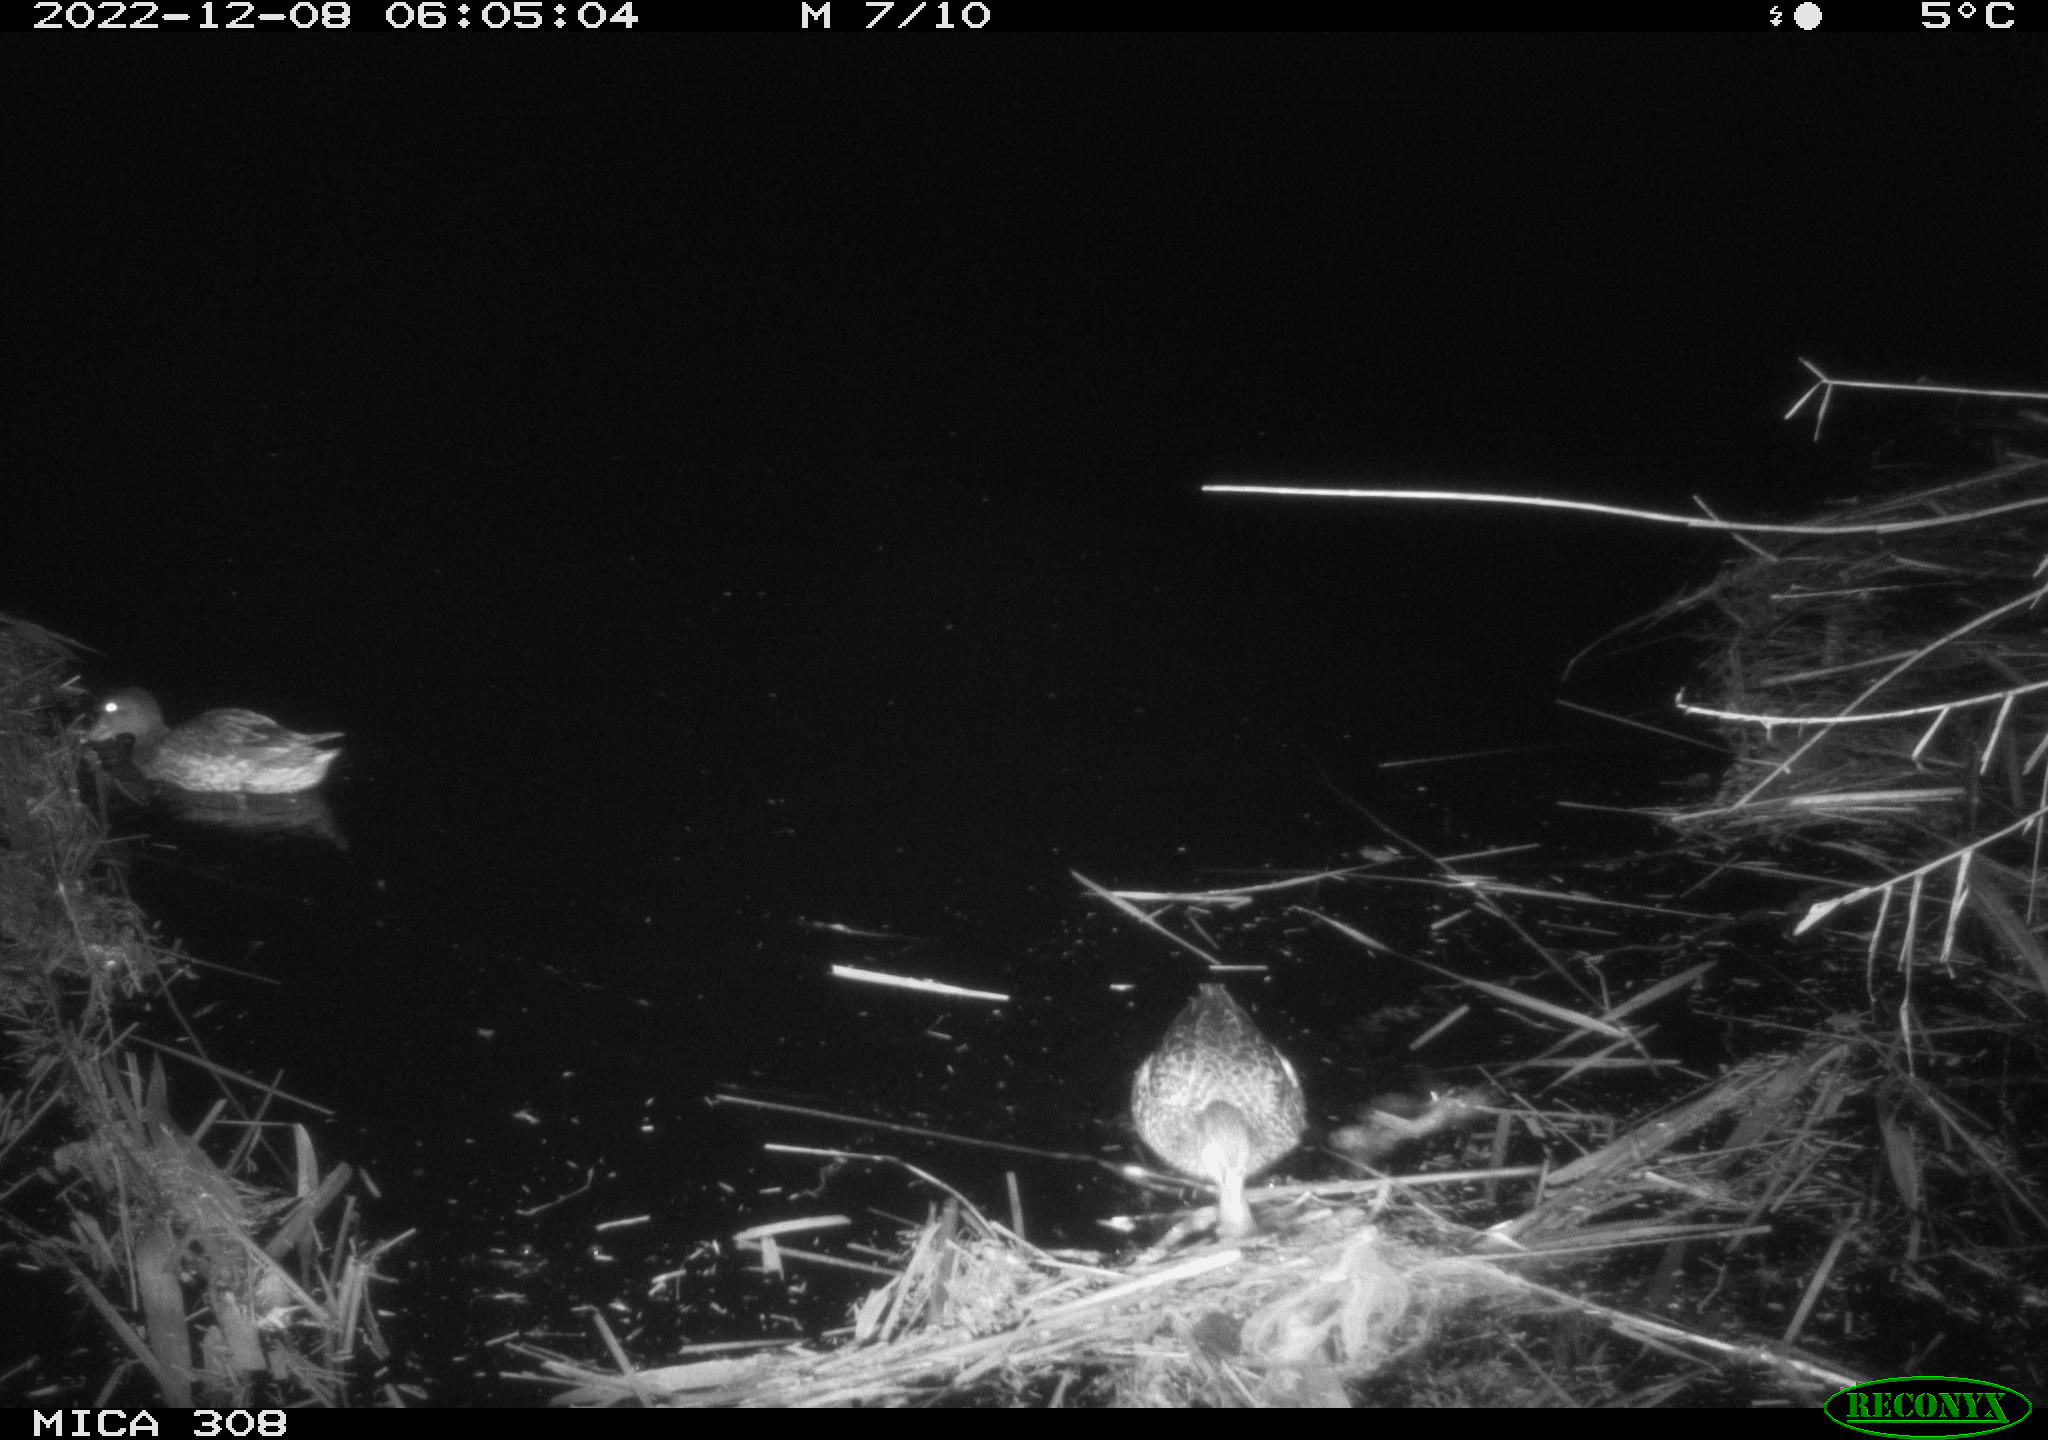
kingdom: Animalia
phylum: Chordata
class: Aves
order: Anseriformes
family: Anatidae
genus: Anas
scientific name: Anas
